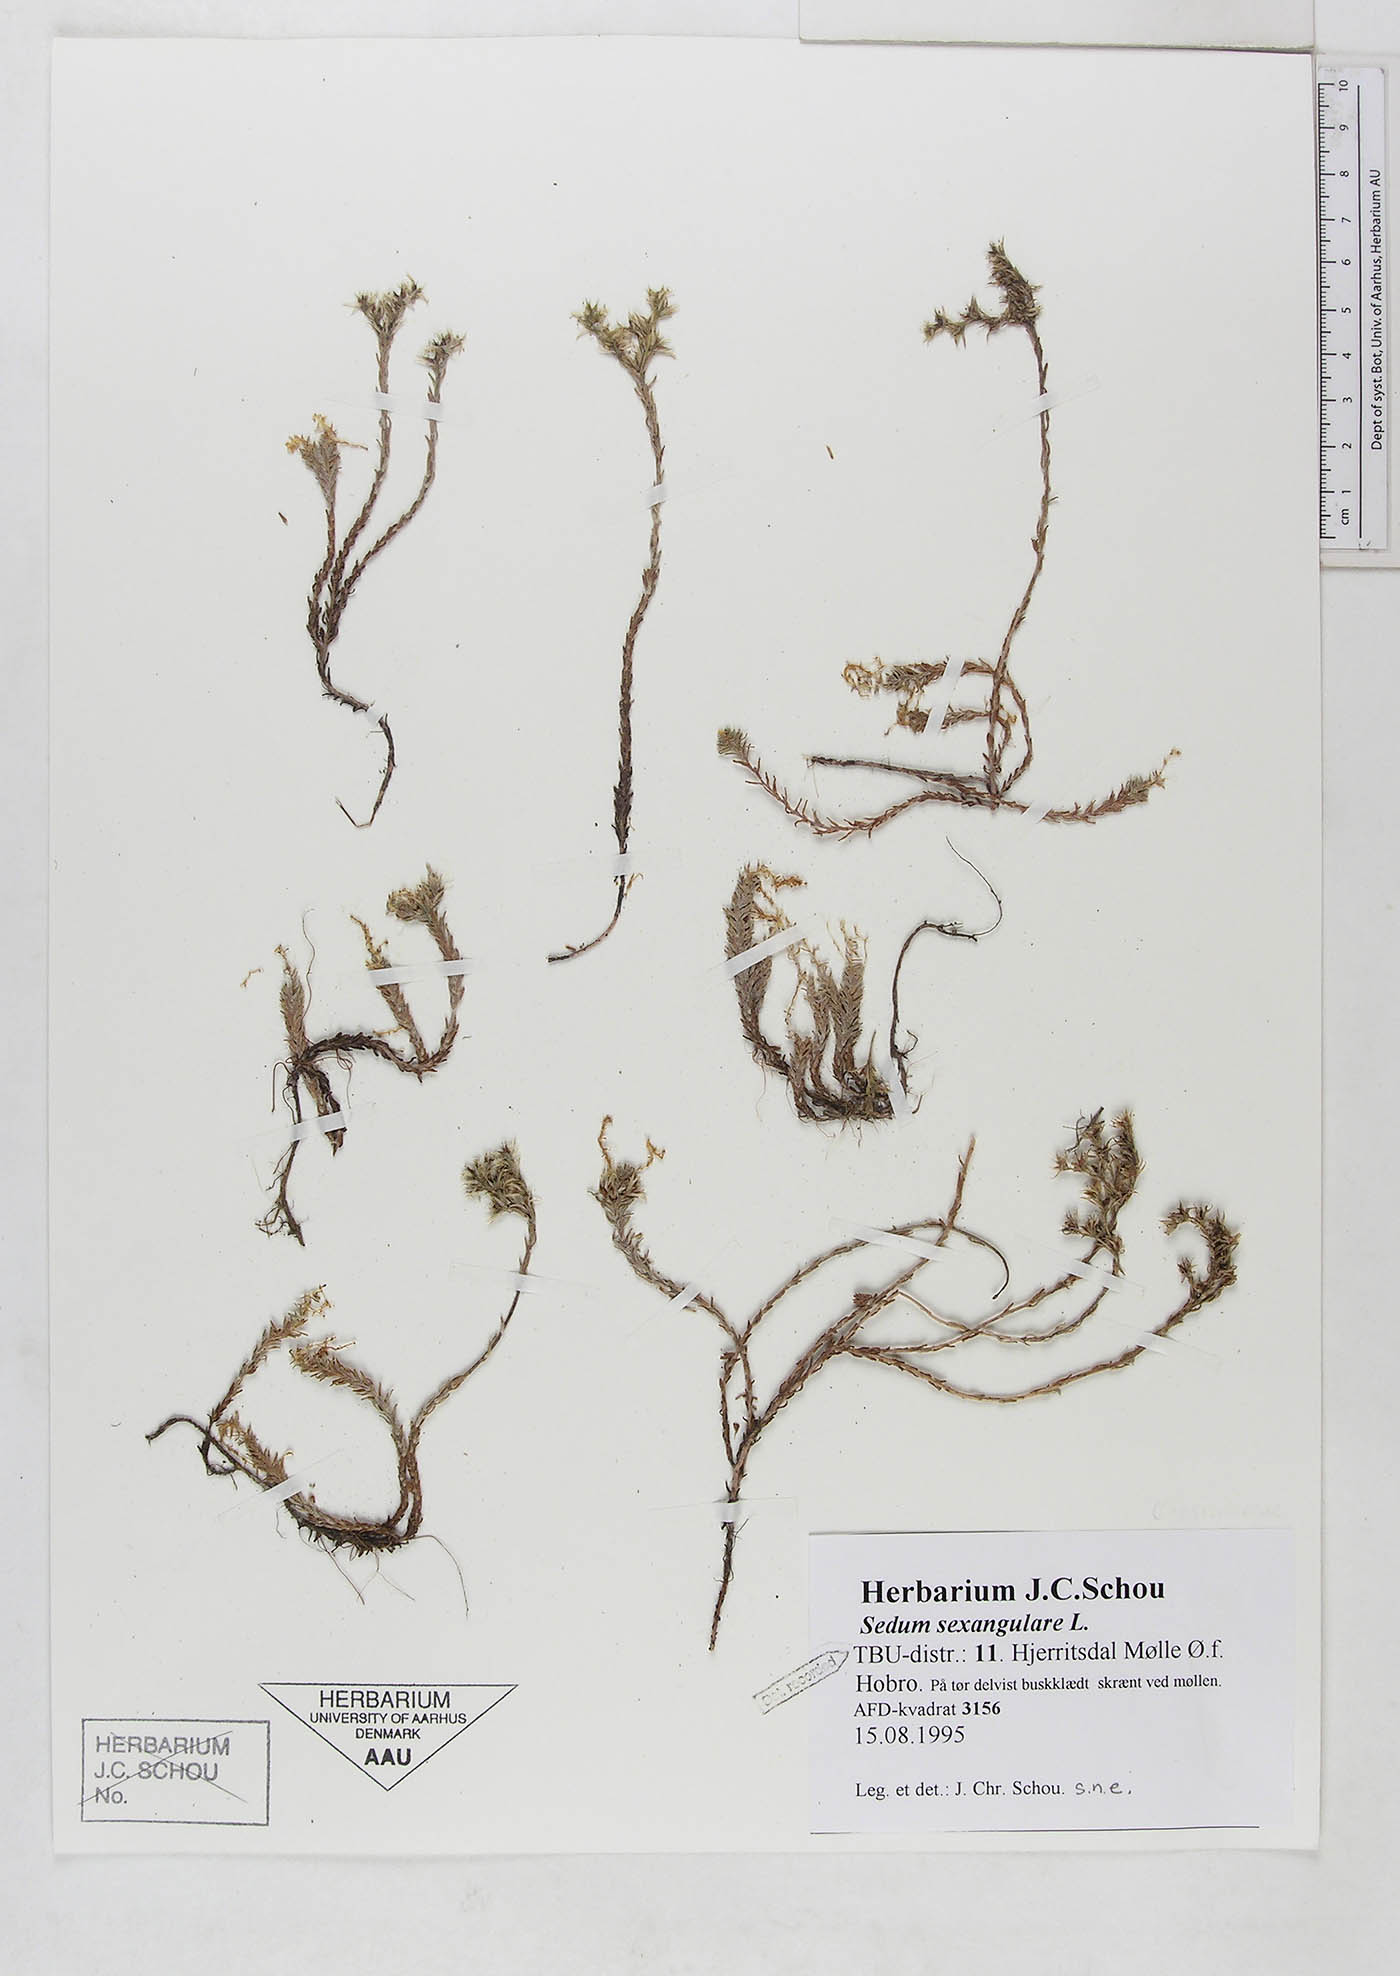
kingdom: Plantae
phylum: Tracheophyta
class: Magnoliopsida
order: Saxifragales
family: Crassulaceae
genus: Sedum
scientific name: Sedum sexangulare
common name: Tasteless stonecrop
